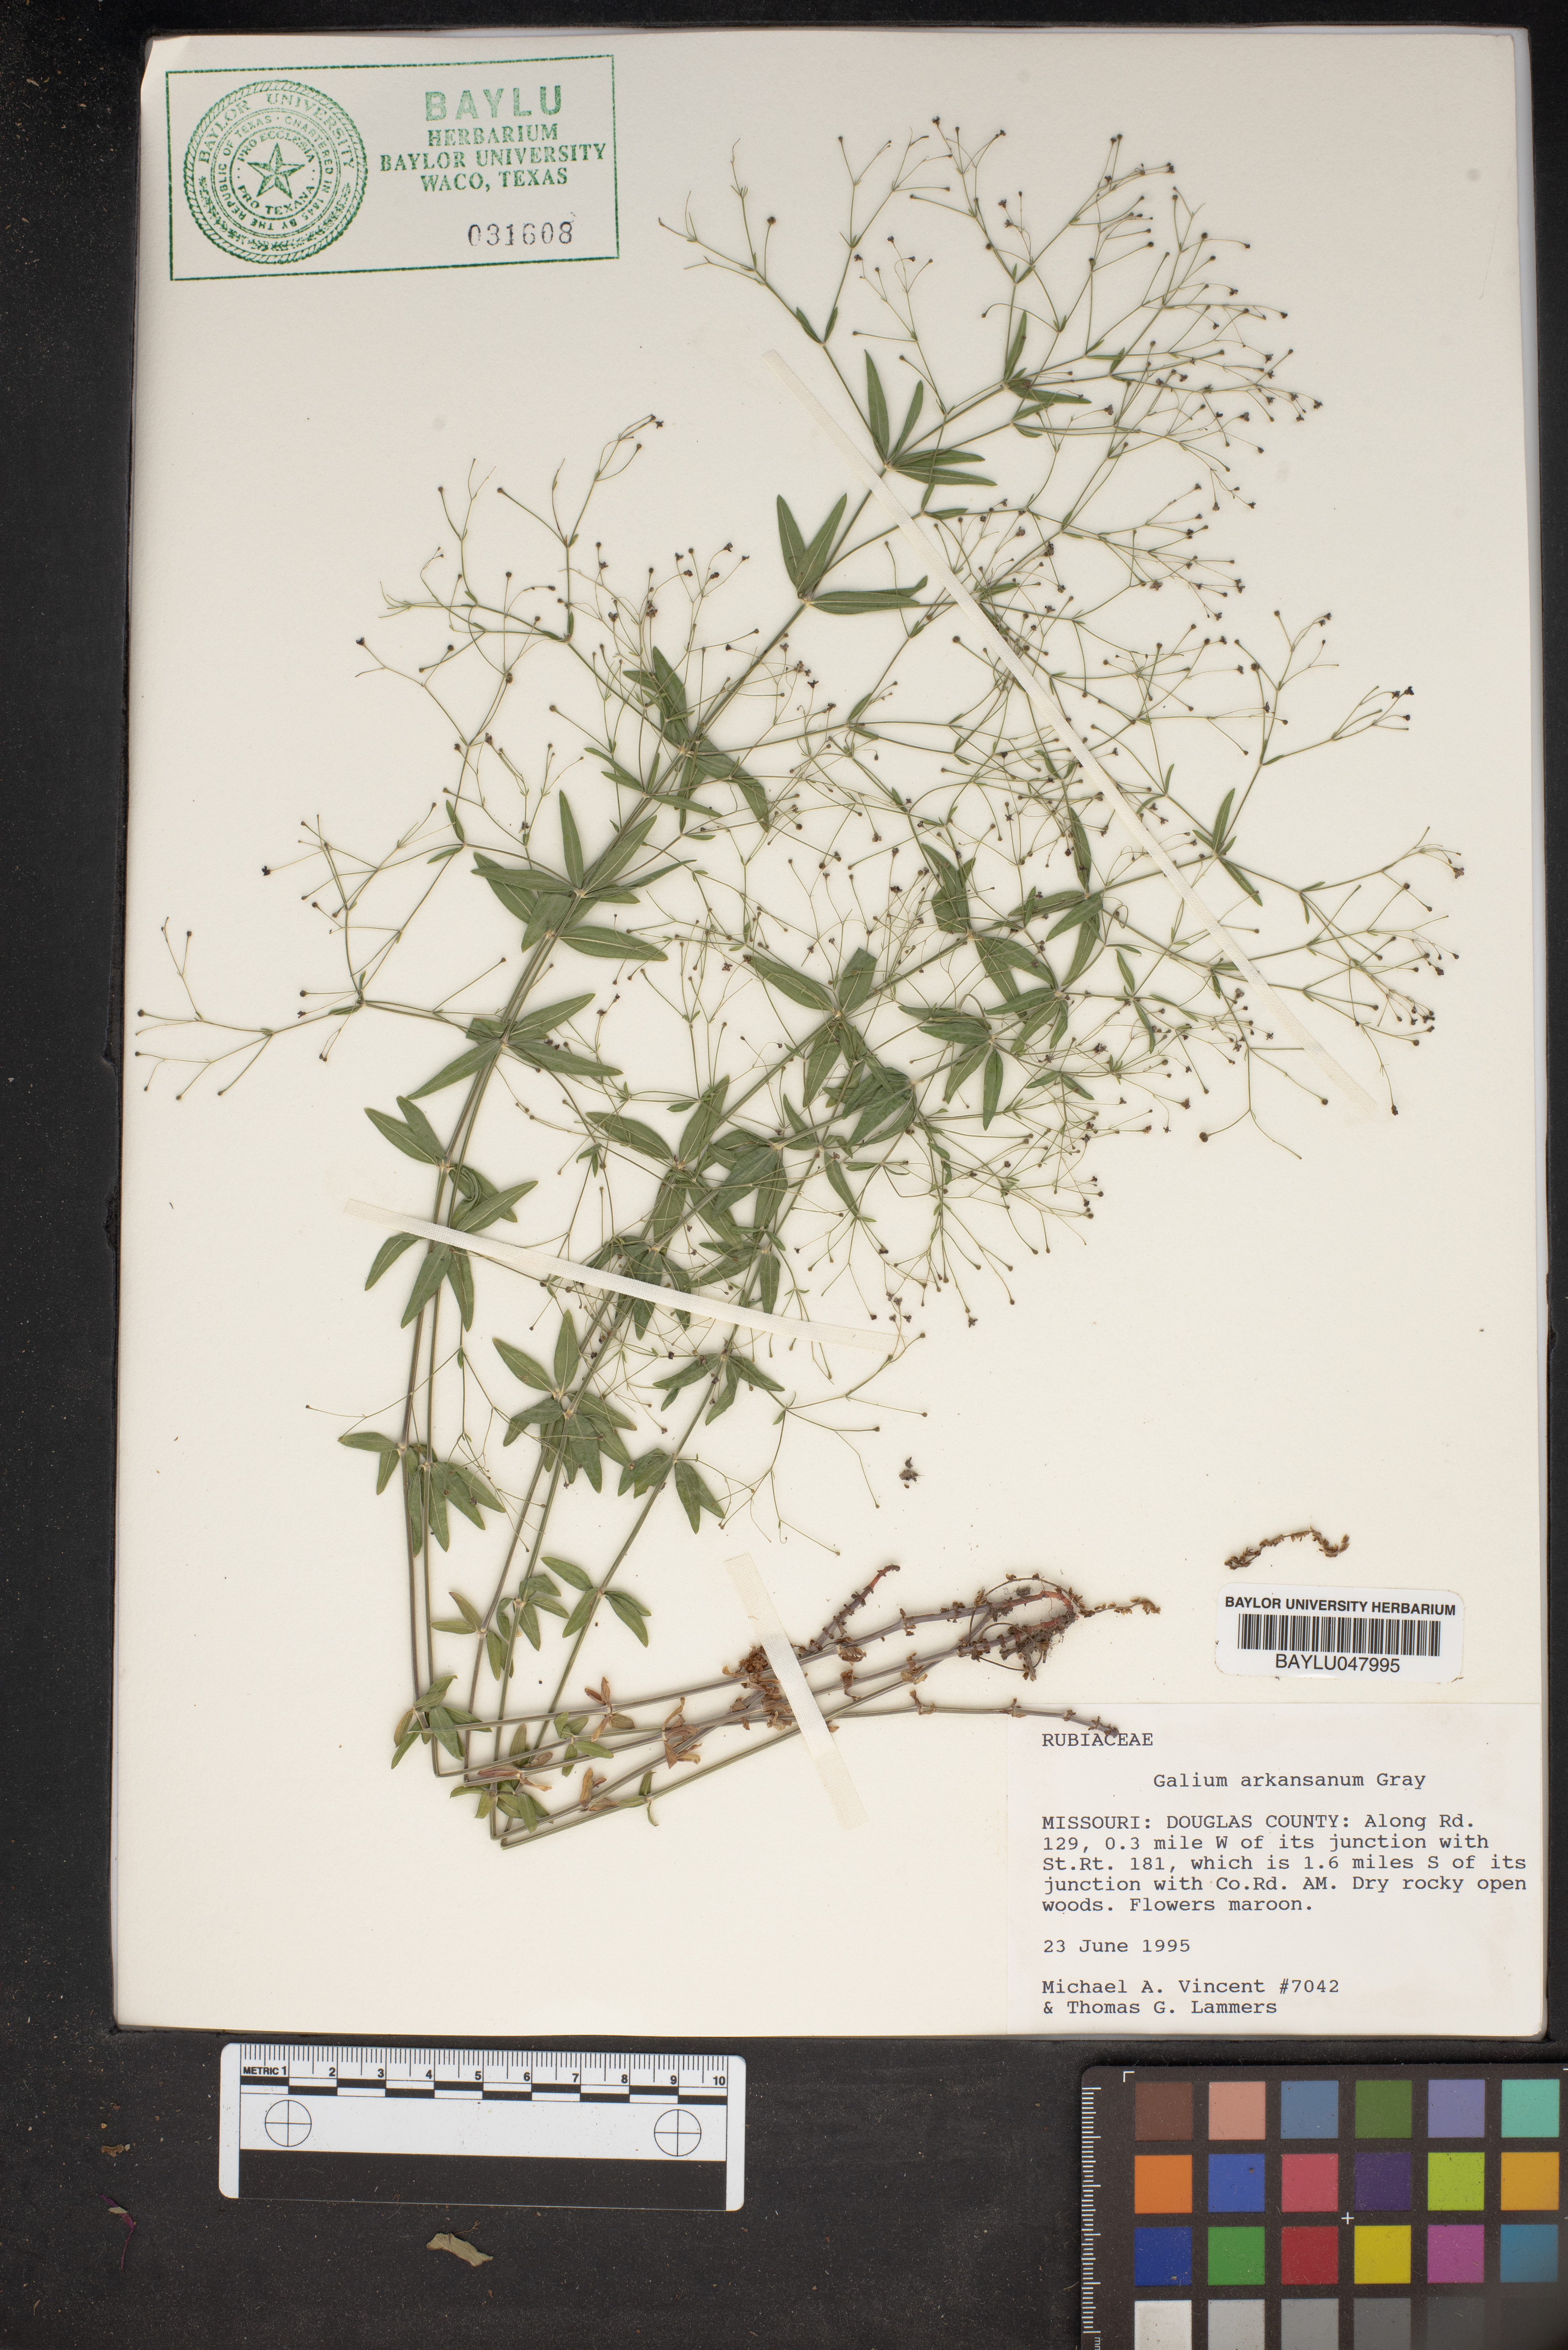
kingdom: Plantae
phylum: Tracheophyta
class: Magnoliopsida
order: Gentianales
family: Rubiaceae
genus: Galium
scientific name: Galium arkansanum
